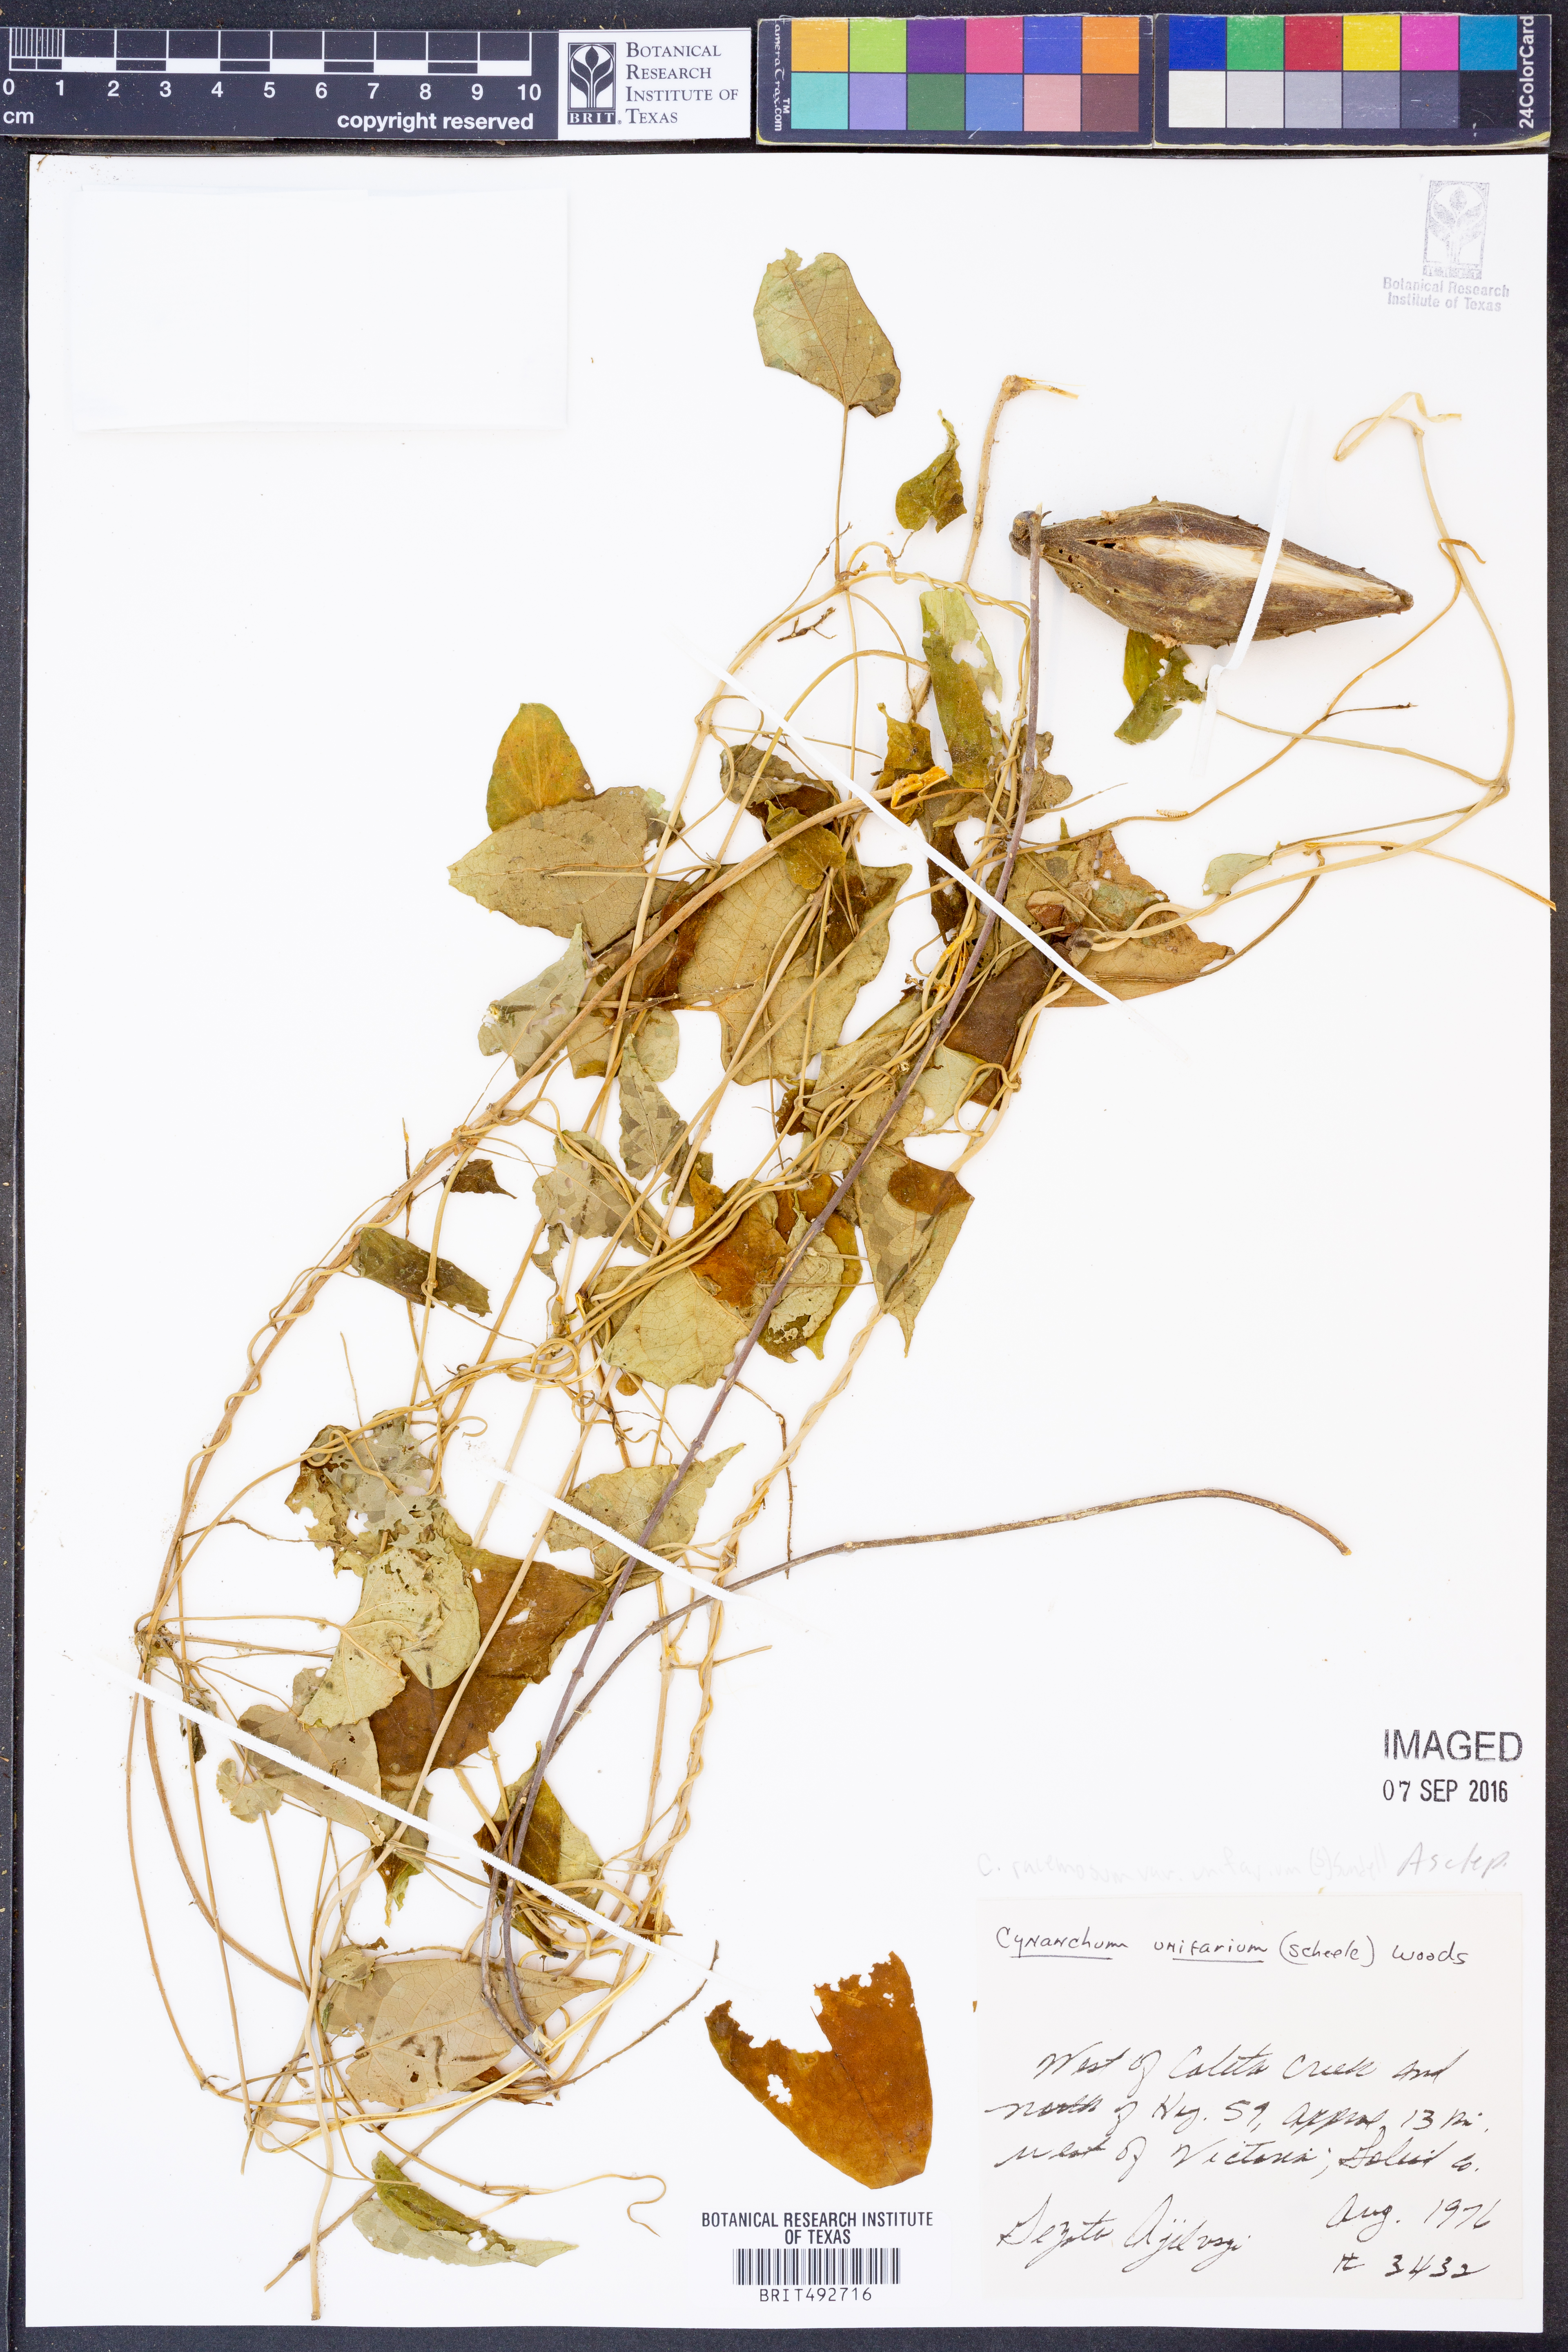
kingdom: Plantae
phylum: Tracheophyta
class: Magnoliopsida
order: Gentianales
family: Apocynaceae
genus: Cynanchum
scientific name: Cynanchum racemosum
